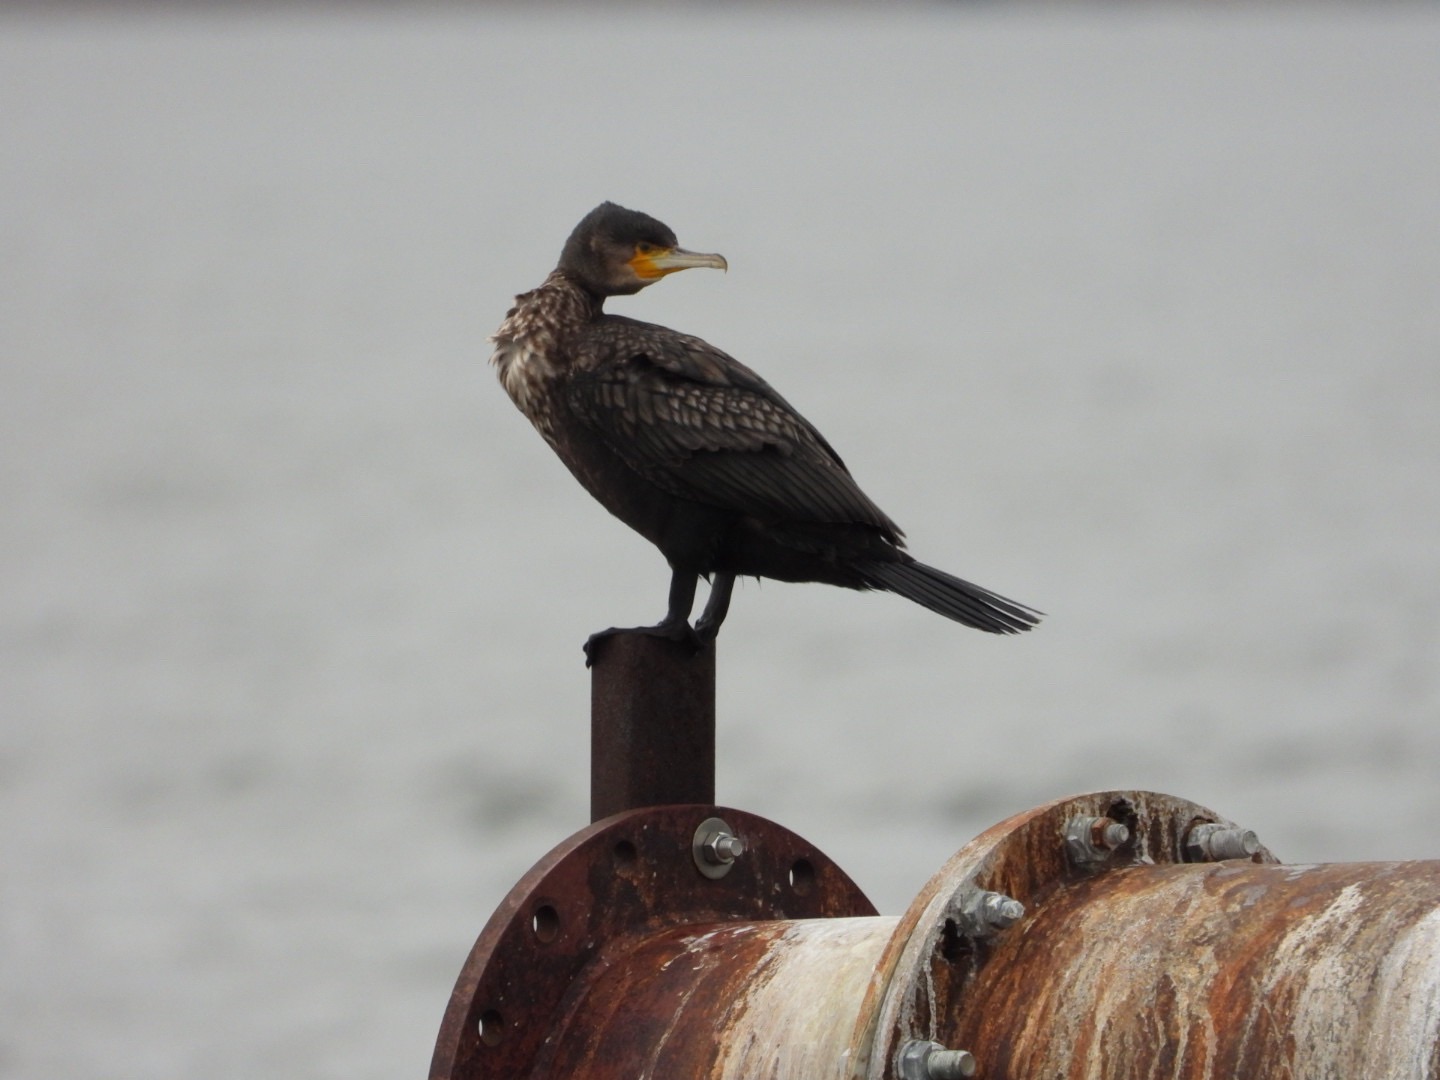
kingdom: Animalia
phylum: Chordata
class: Aves
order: Suliformes
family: Phalacrocoracidae
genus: Phalacrocorax
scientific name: Phalacrocorax carbo
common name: Skarv
